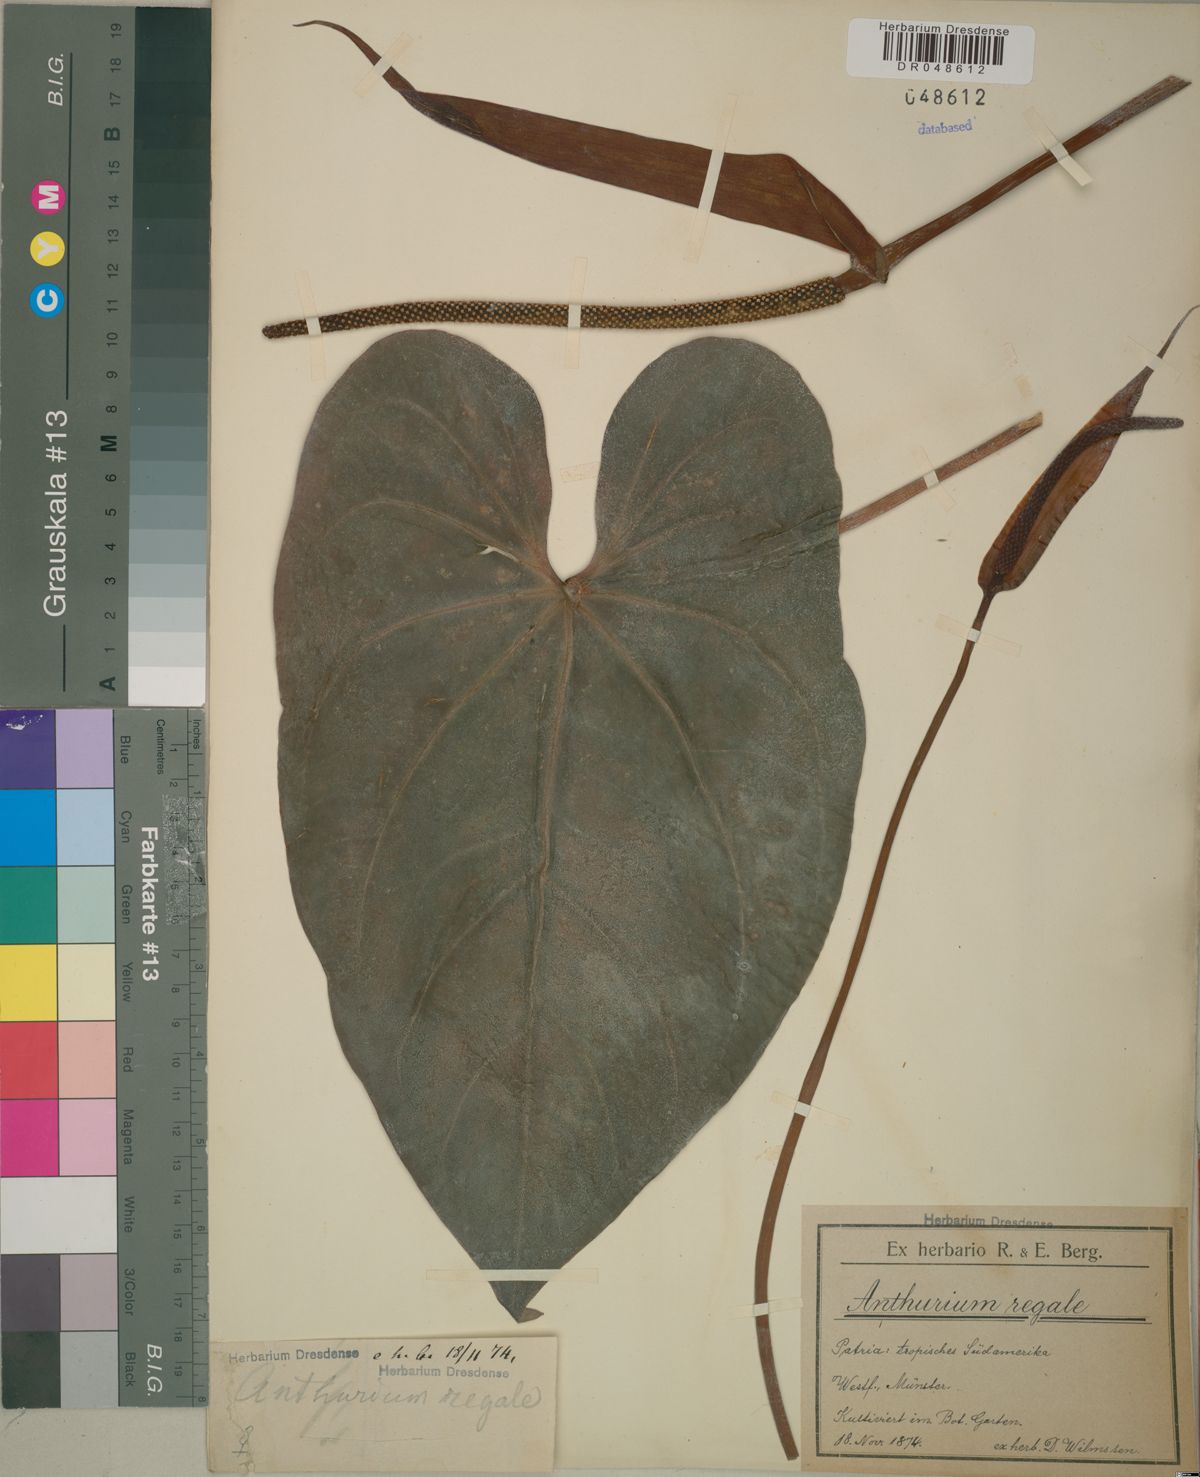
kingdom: Plantae
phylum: Tracheophyta
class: Liliopsida
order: Alismatales
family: Araceae
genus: Anthurium
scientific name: Anthurium regale
